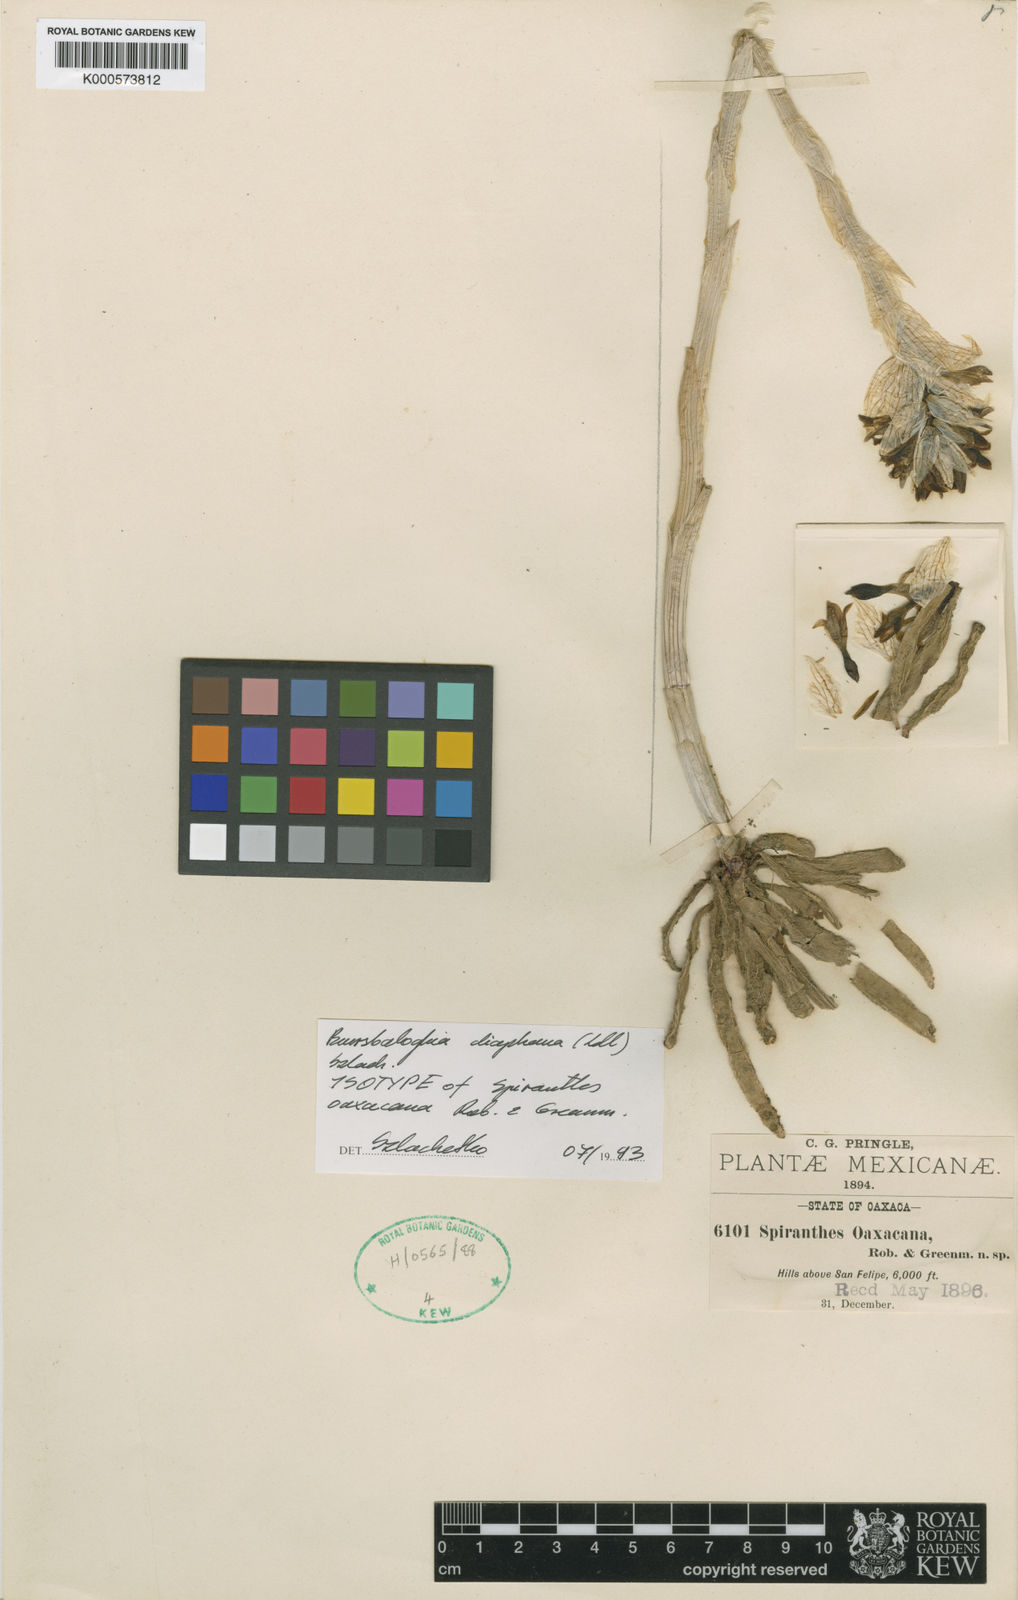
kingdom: Plantae
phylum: Tracheophyta
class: Liliopsida
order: Asparagales
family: Orchidaceae
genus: Deiregyne
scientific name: Deiregyne diaphana
